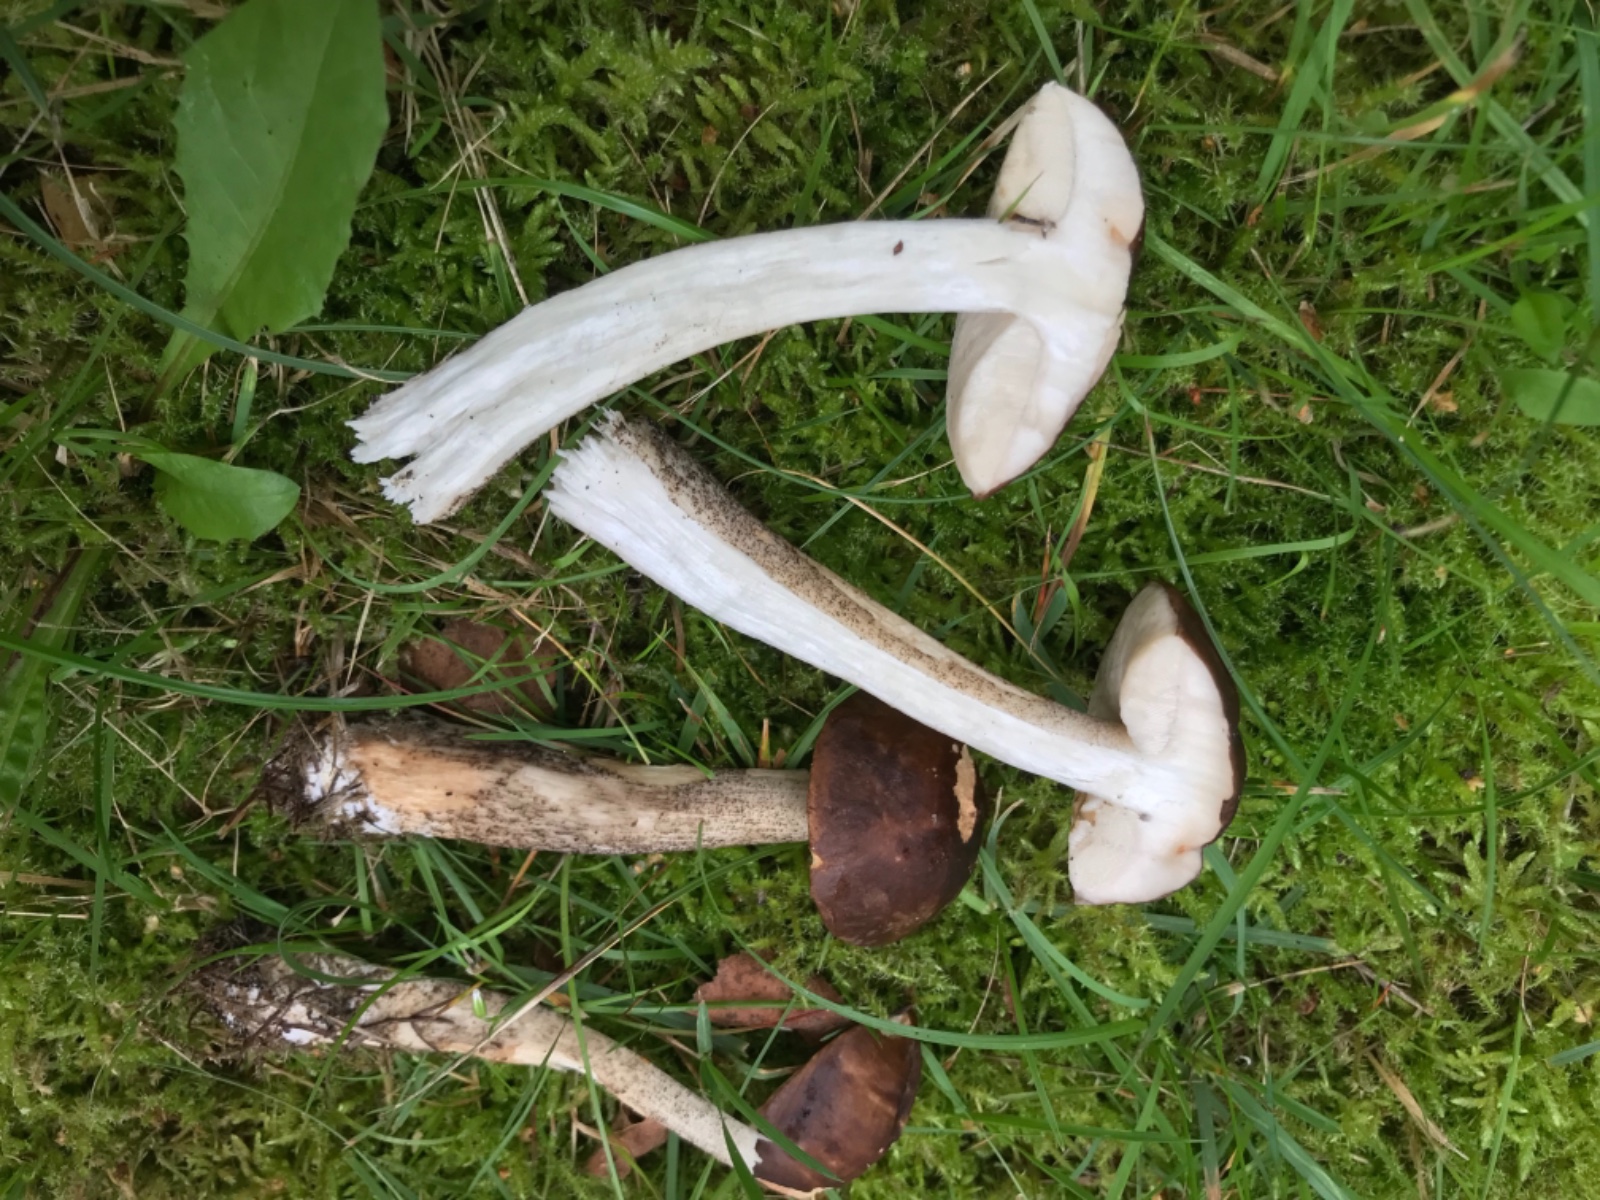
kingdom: Fungi
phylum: Basidiomycota
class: Agaricomycetes
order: Boletales
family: Boletaceae
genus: Leccinum
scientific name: Leccinum scabrum
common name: brun skælrørhat
